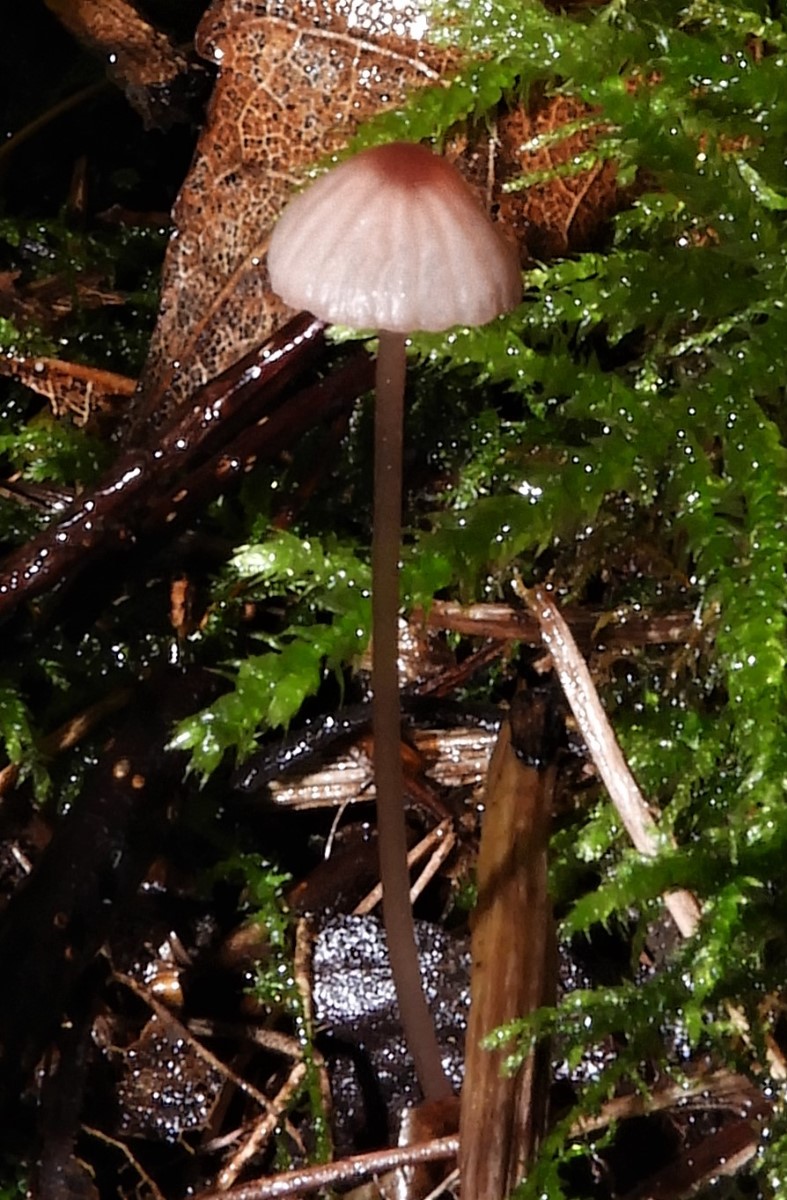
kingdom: Fungi
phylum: Basidiomycota
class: Agaricomycetes
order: Agaricales
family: Mycenaceae
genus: Mycena
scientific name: Mycena sanguinolenta
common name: rødmælket huesvamp
